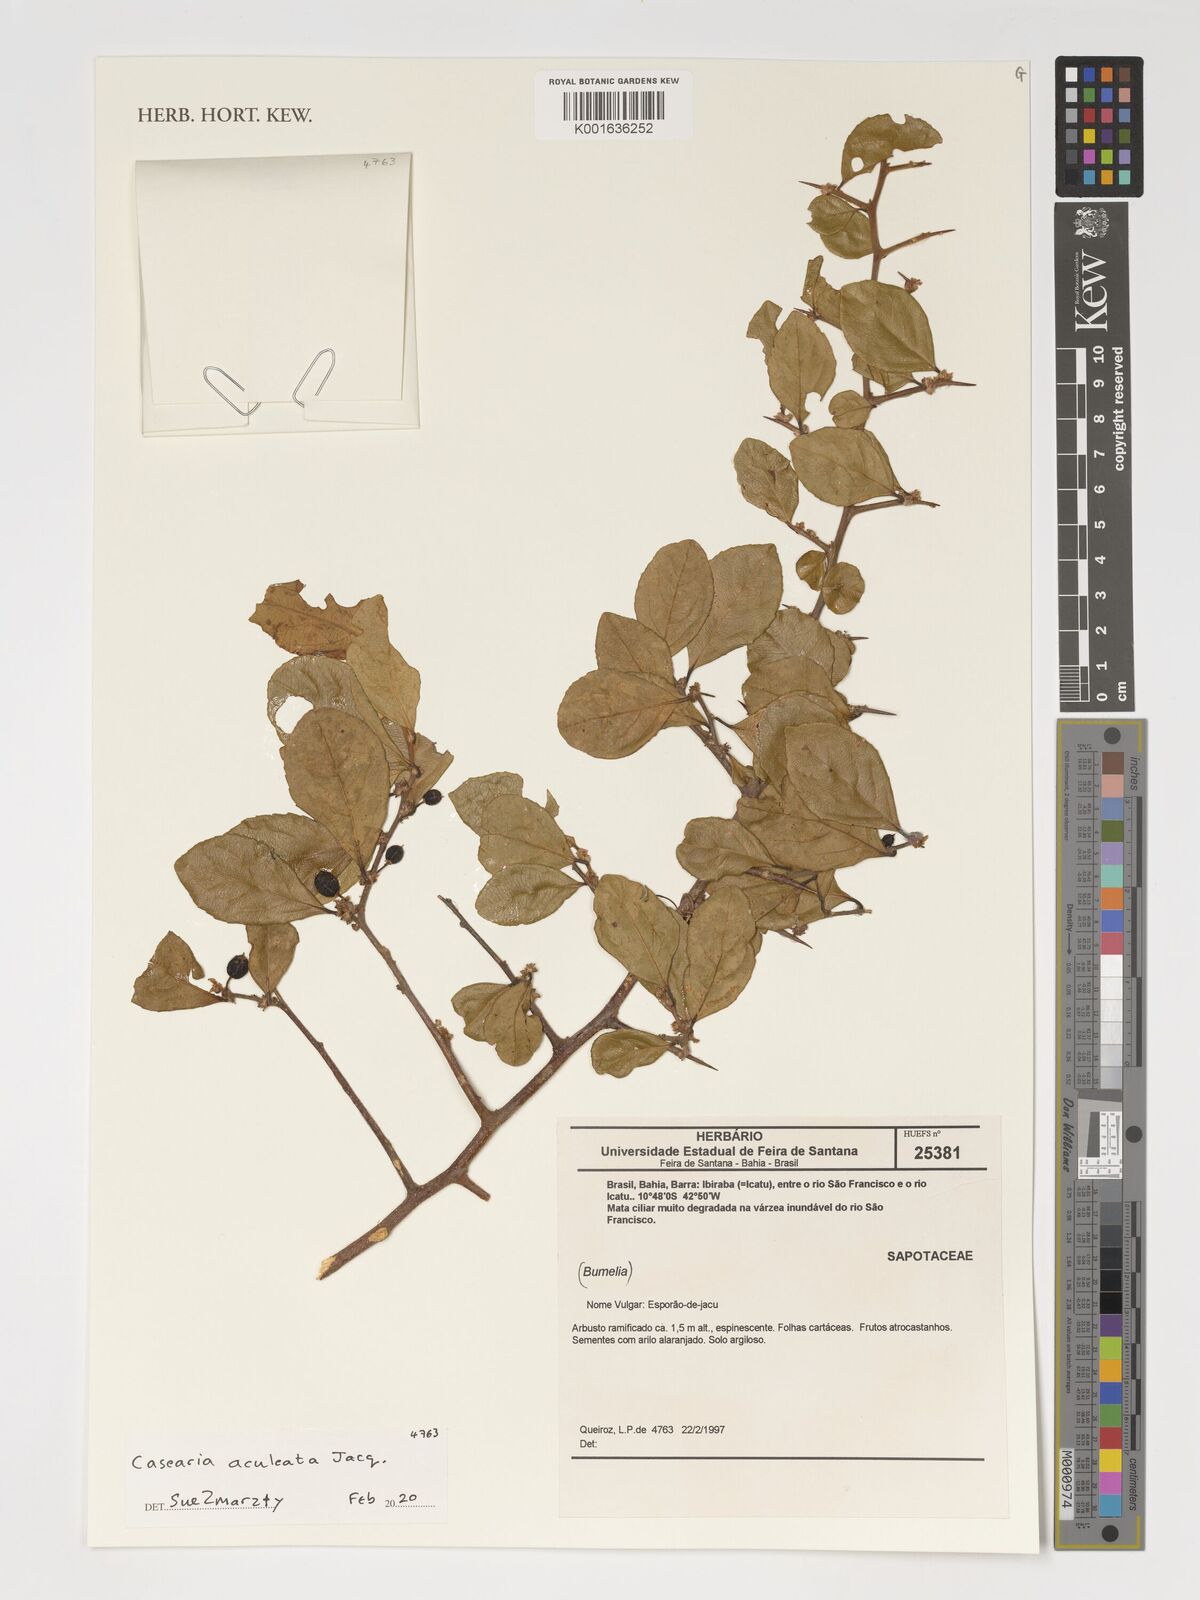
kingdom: Plantae
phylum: Tracheophyta
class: Magnoliopsida
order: Malpighiales
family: Salicaceae
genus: Casearia
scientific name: Casearia aculeata
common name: Cockspur
